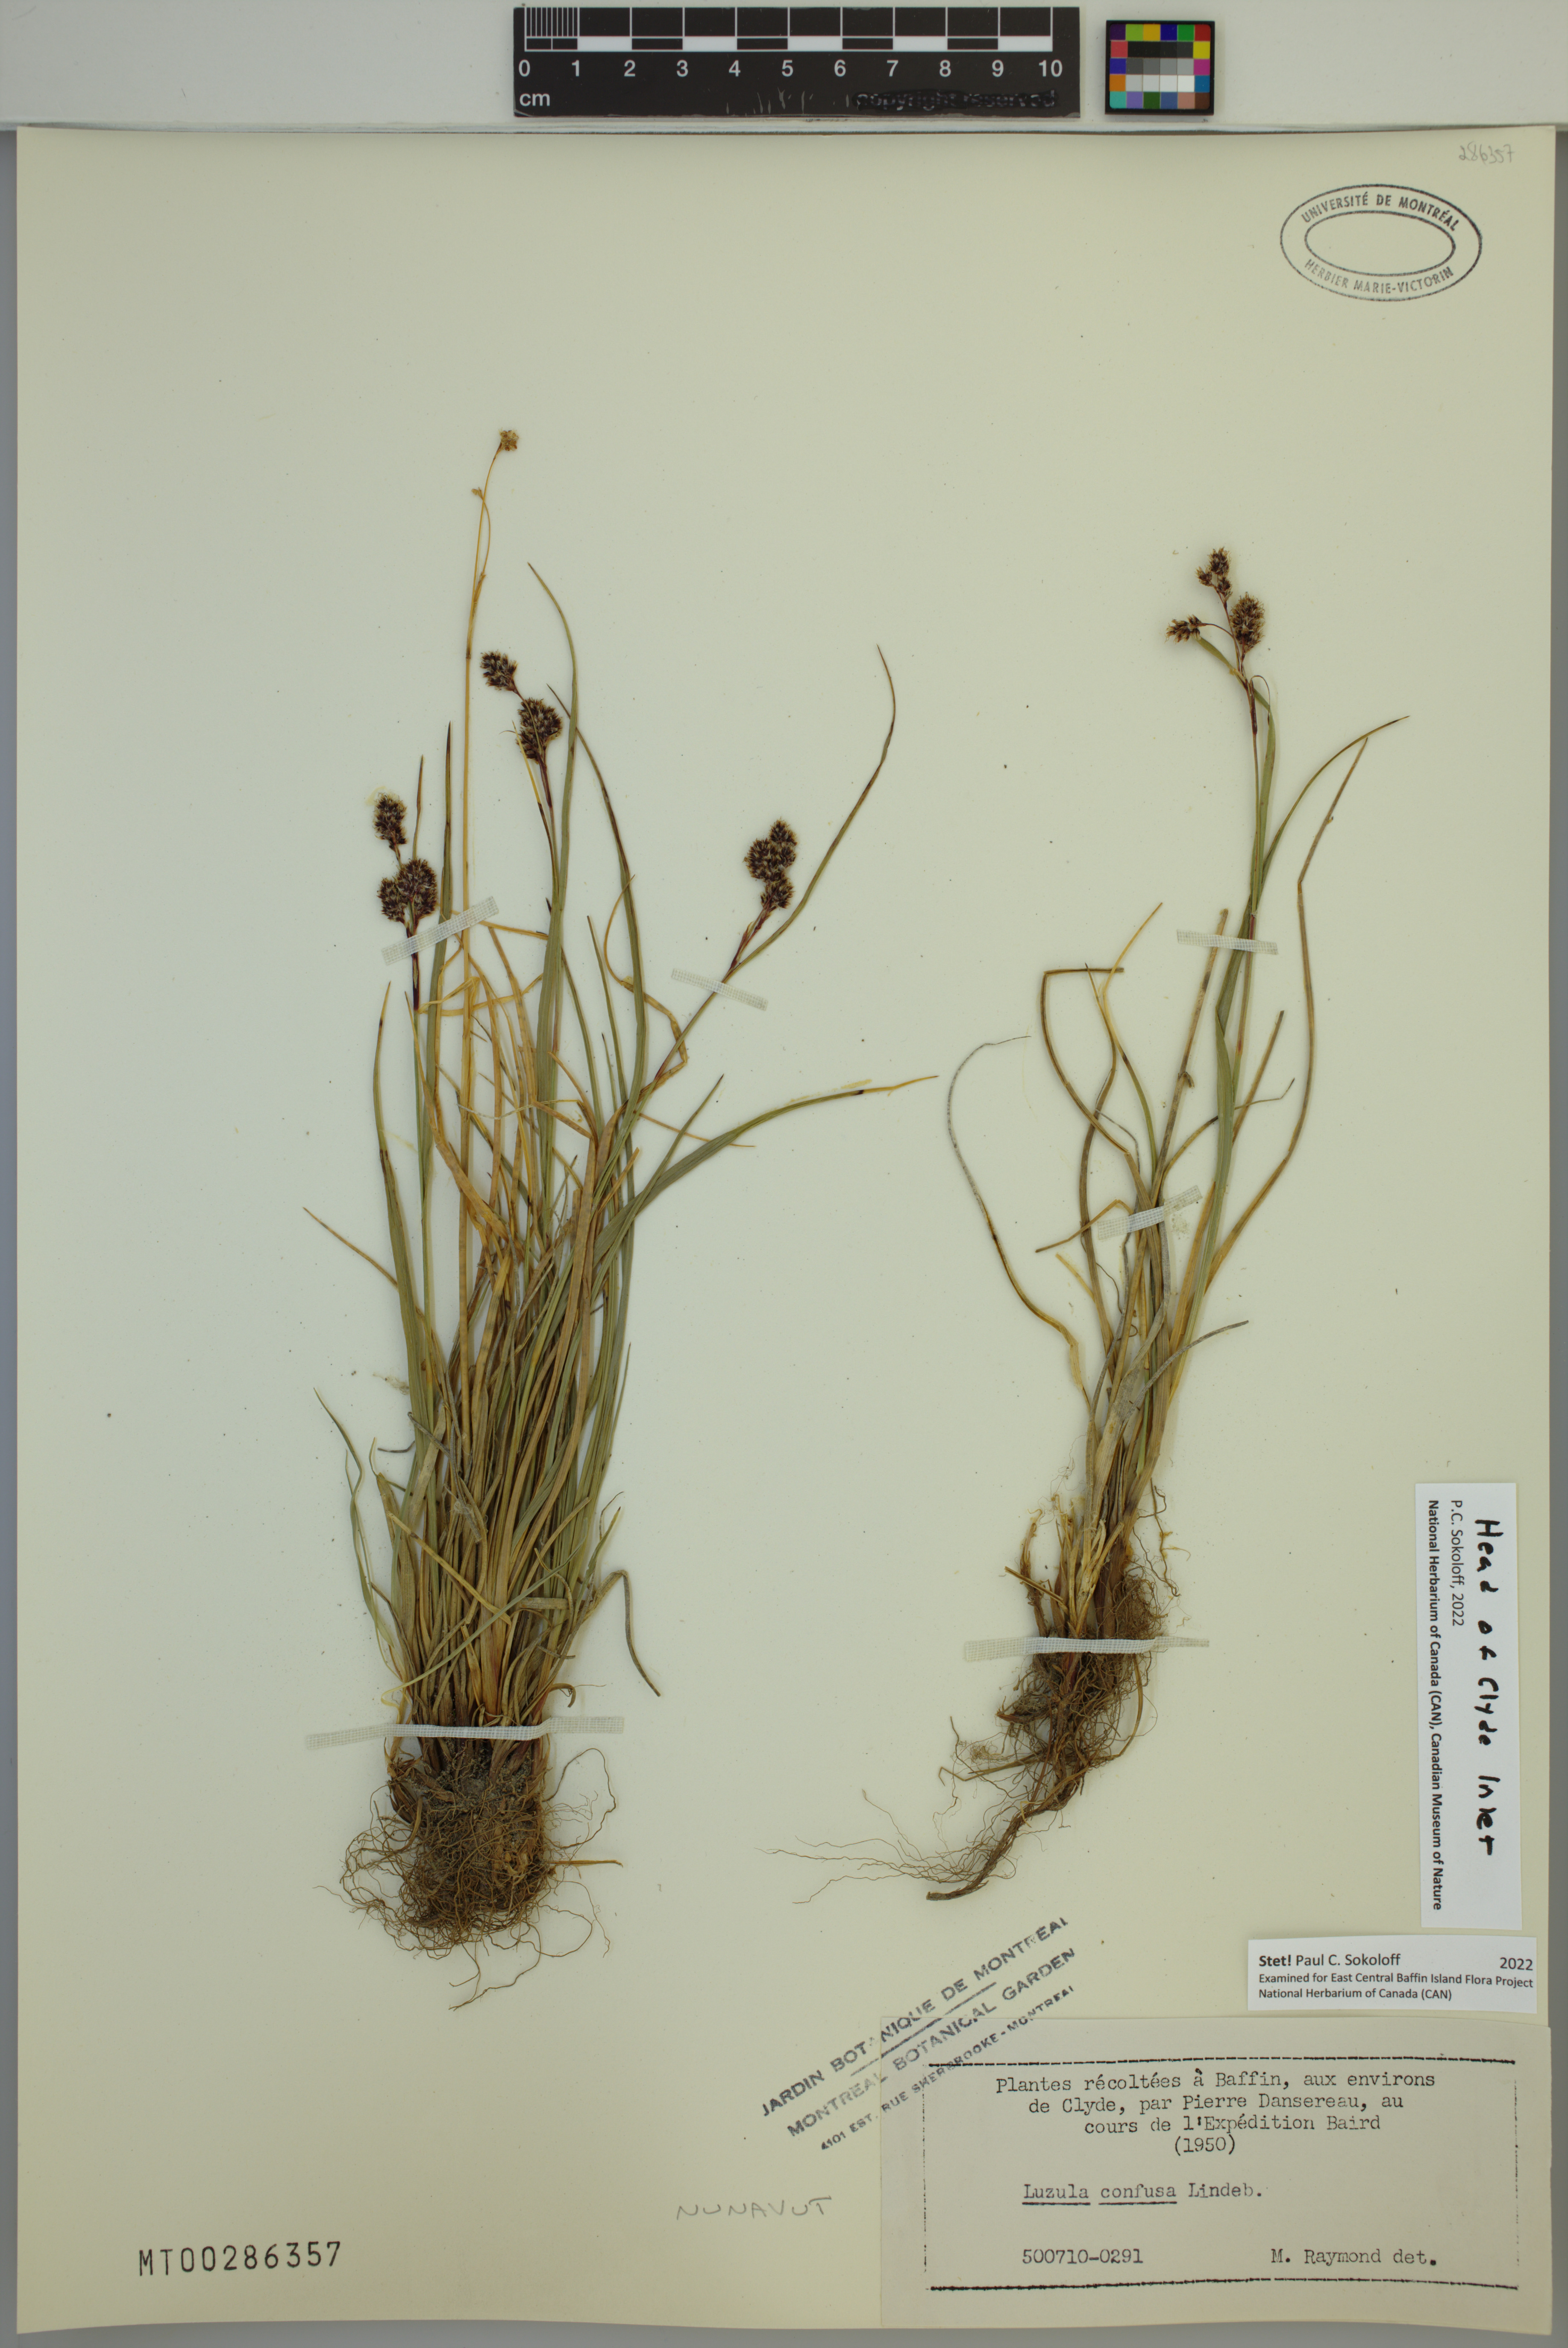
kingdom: Plantae
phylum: Tracheophyta
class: Liliopsida
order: Poales
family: Juncaceae
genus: Luzula
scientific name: Luzula confusa
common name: Northern wood rush
